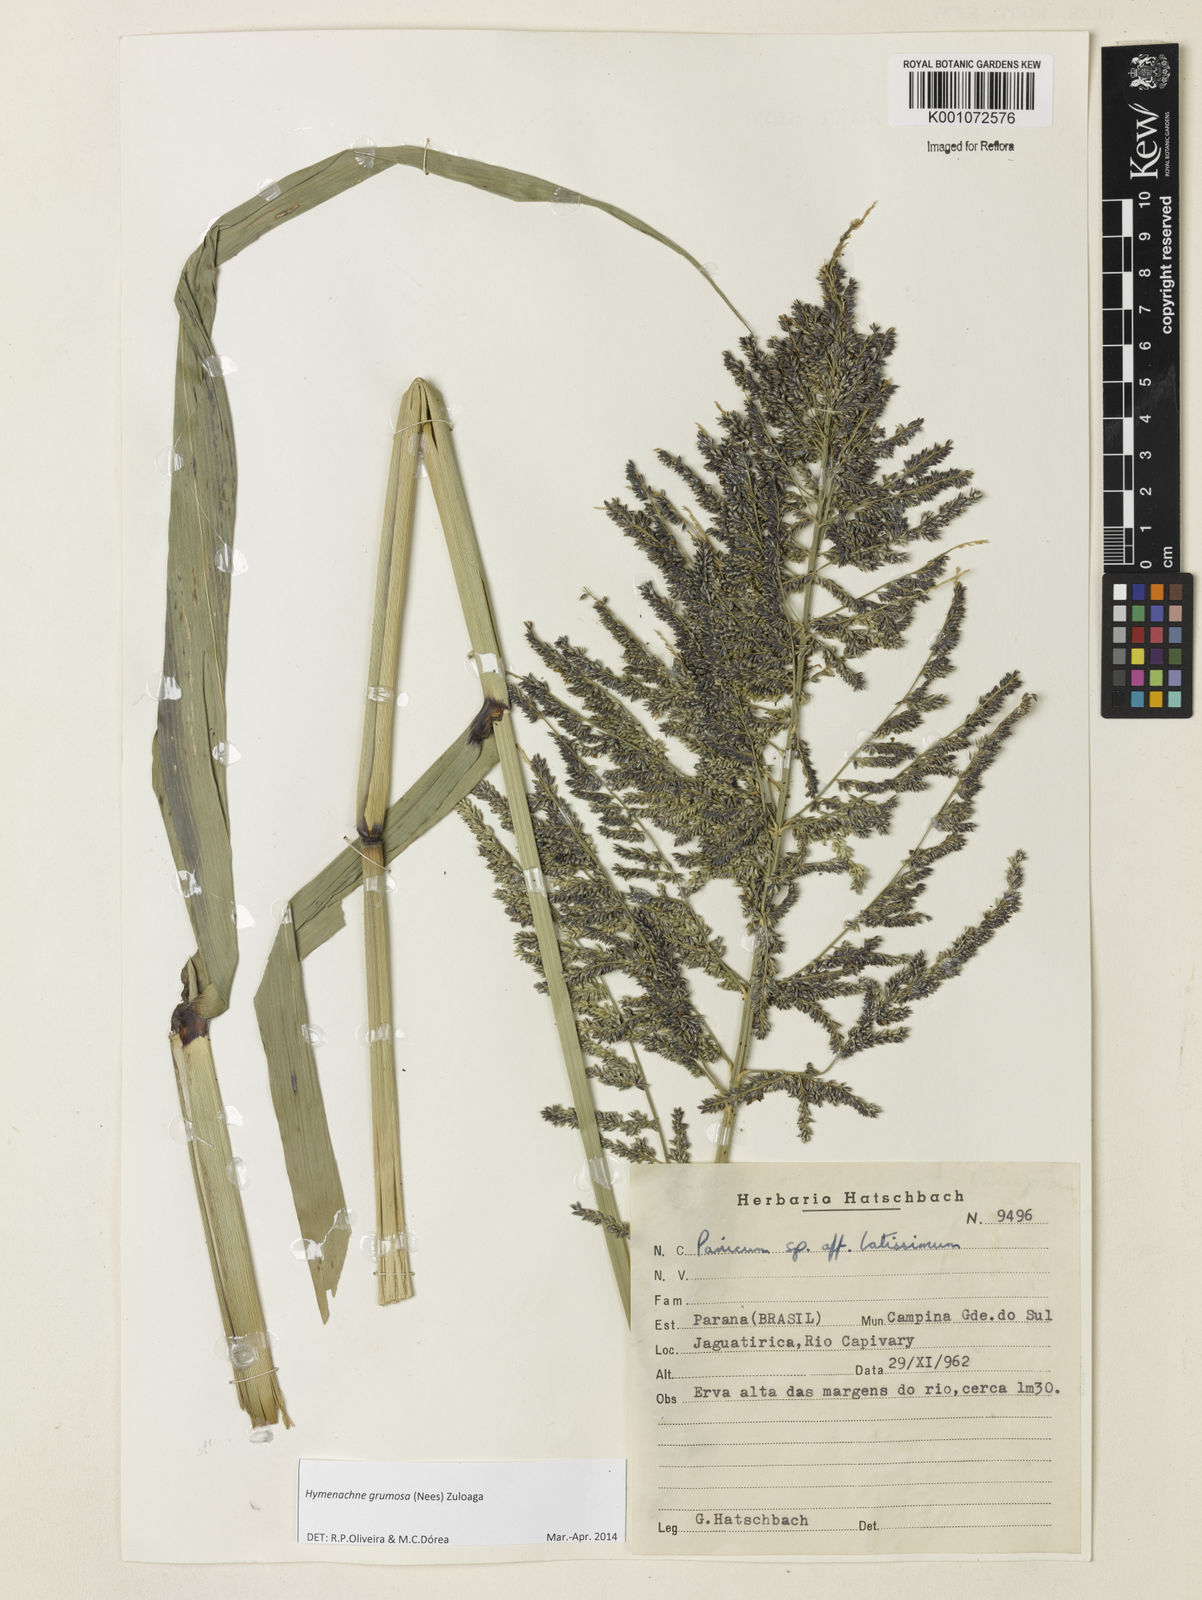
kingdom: Plantae
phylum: Tracheophyta
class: Liliopsida
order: Poales
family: Poaceae
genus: Hymenachne
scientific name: Hymenachne grumosa
